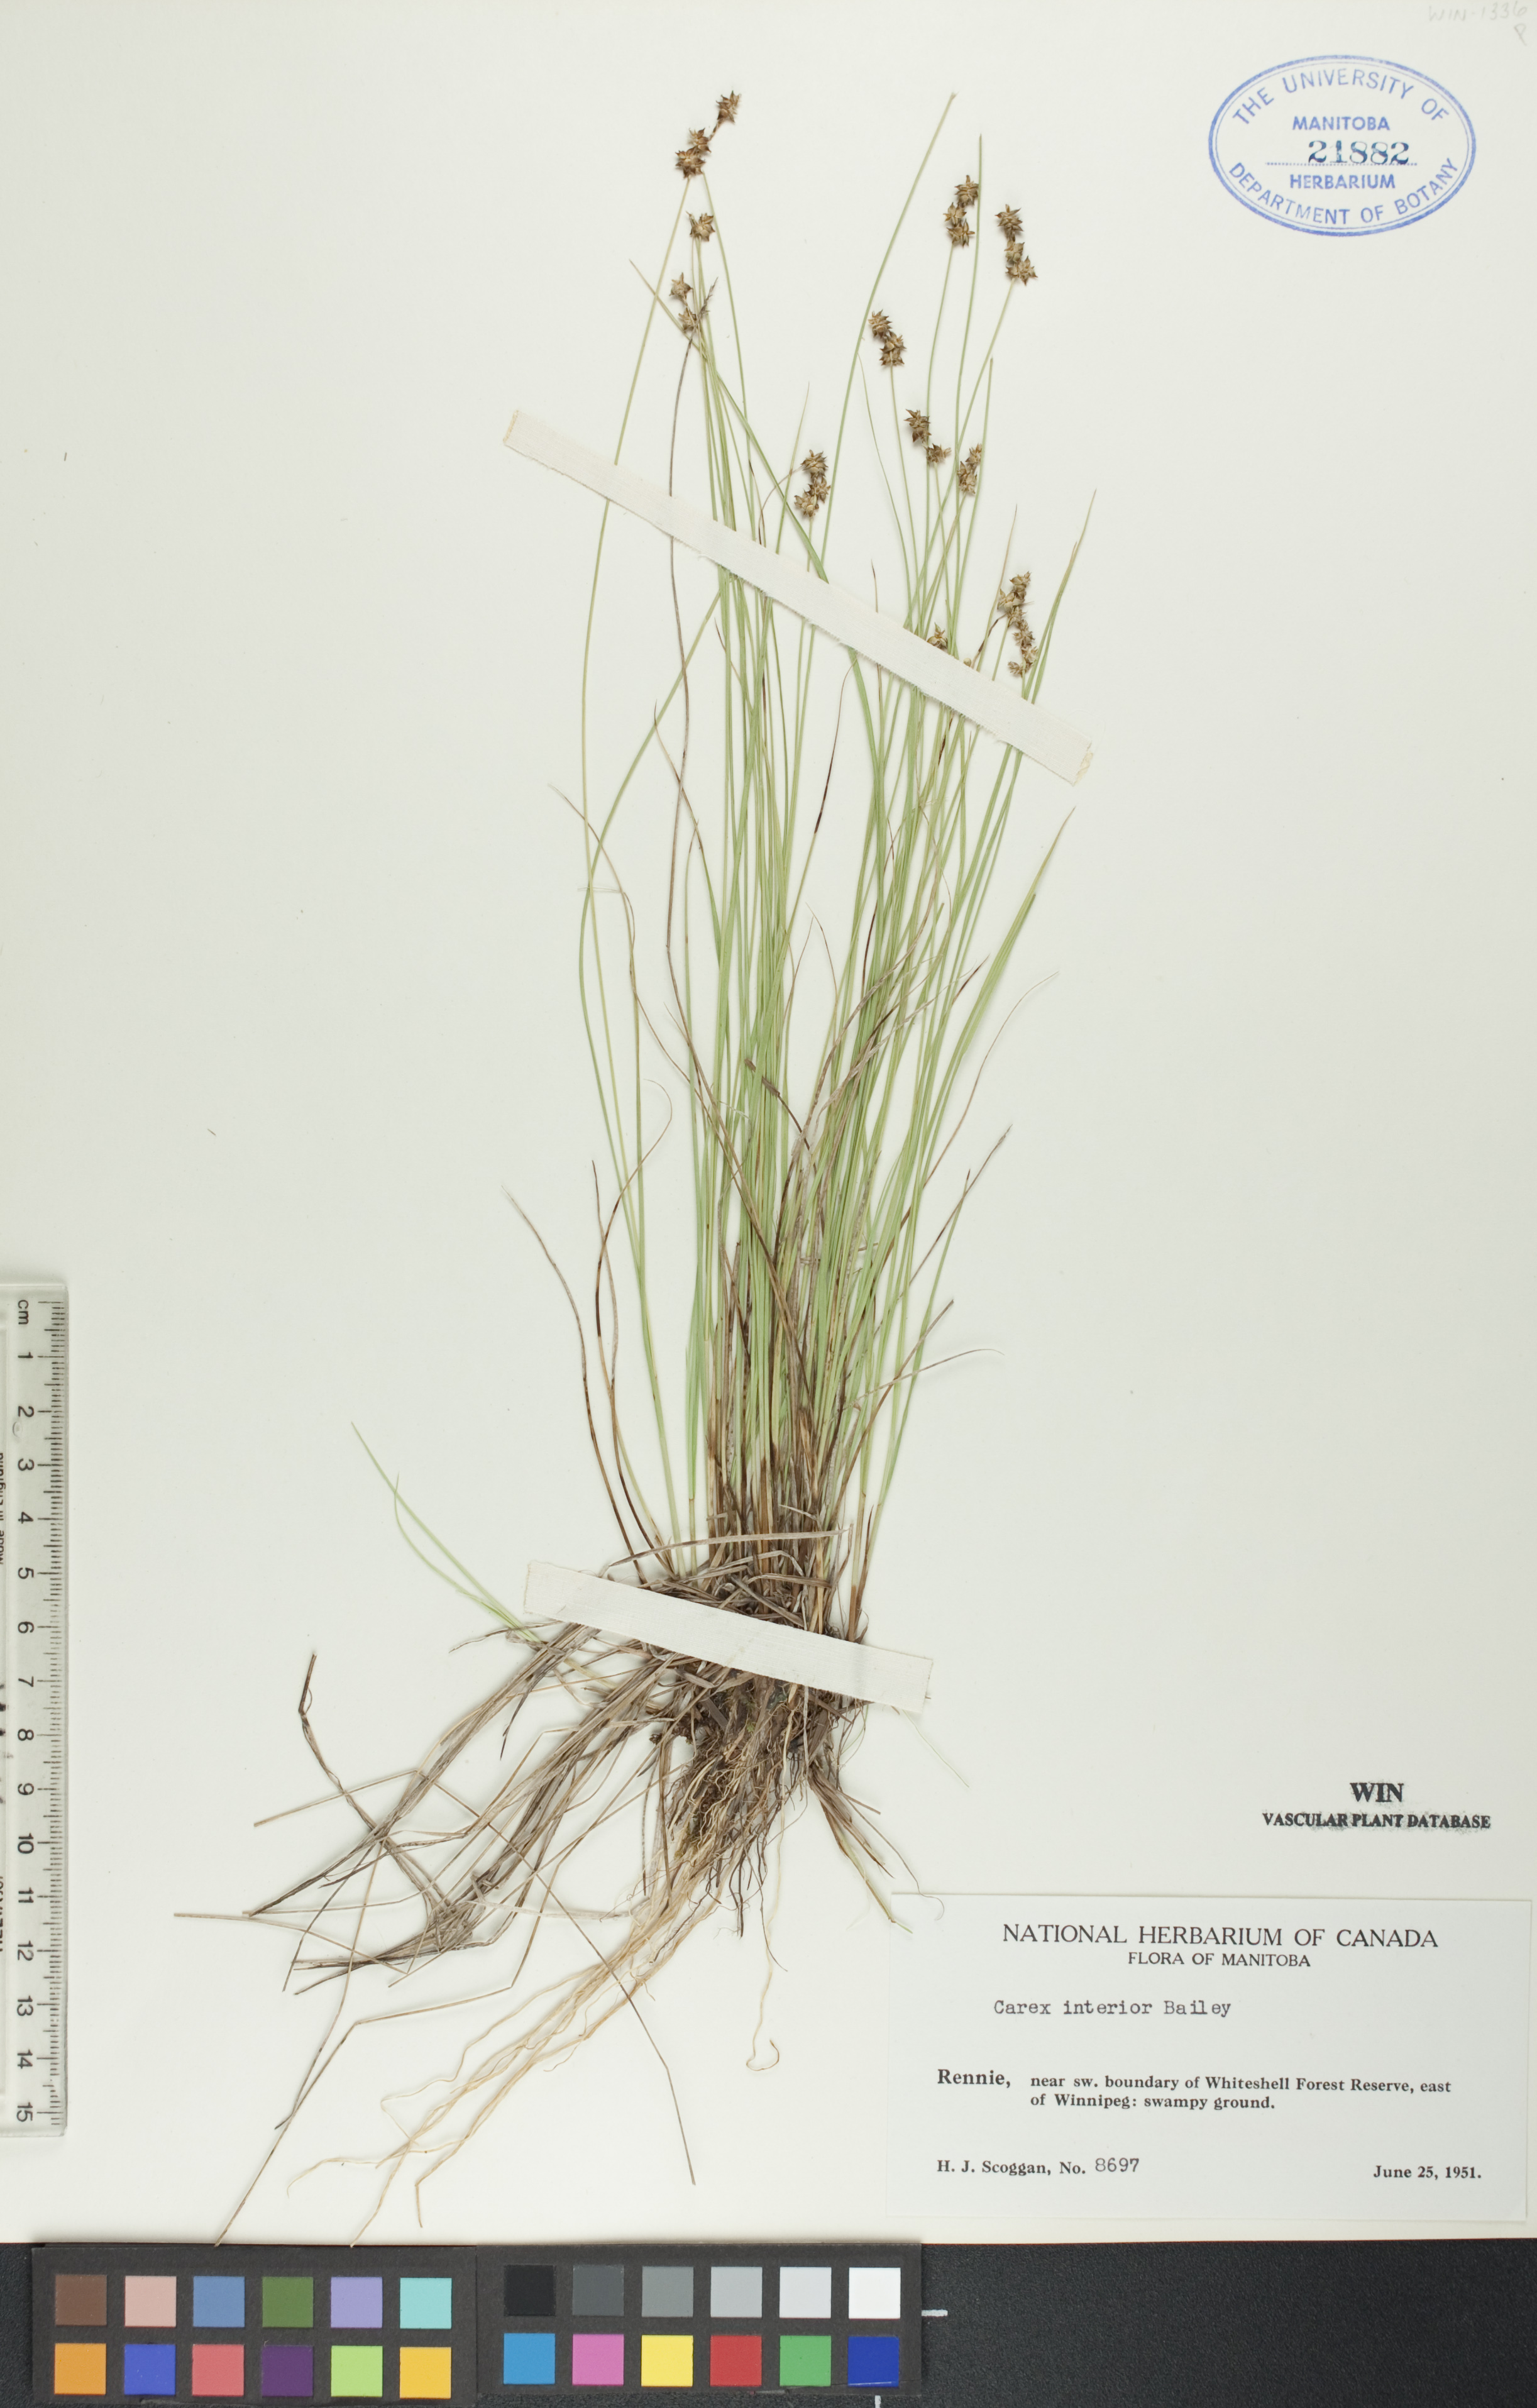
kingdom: Plantae
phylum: Tracheophyta
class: Liliopsida
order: Poales
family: Cyperaceae
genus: Carex
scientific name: Carex interior
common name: Inland sedge
